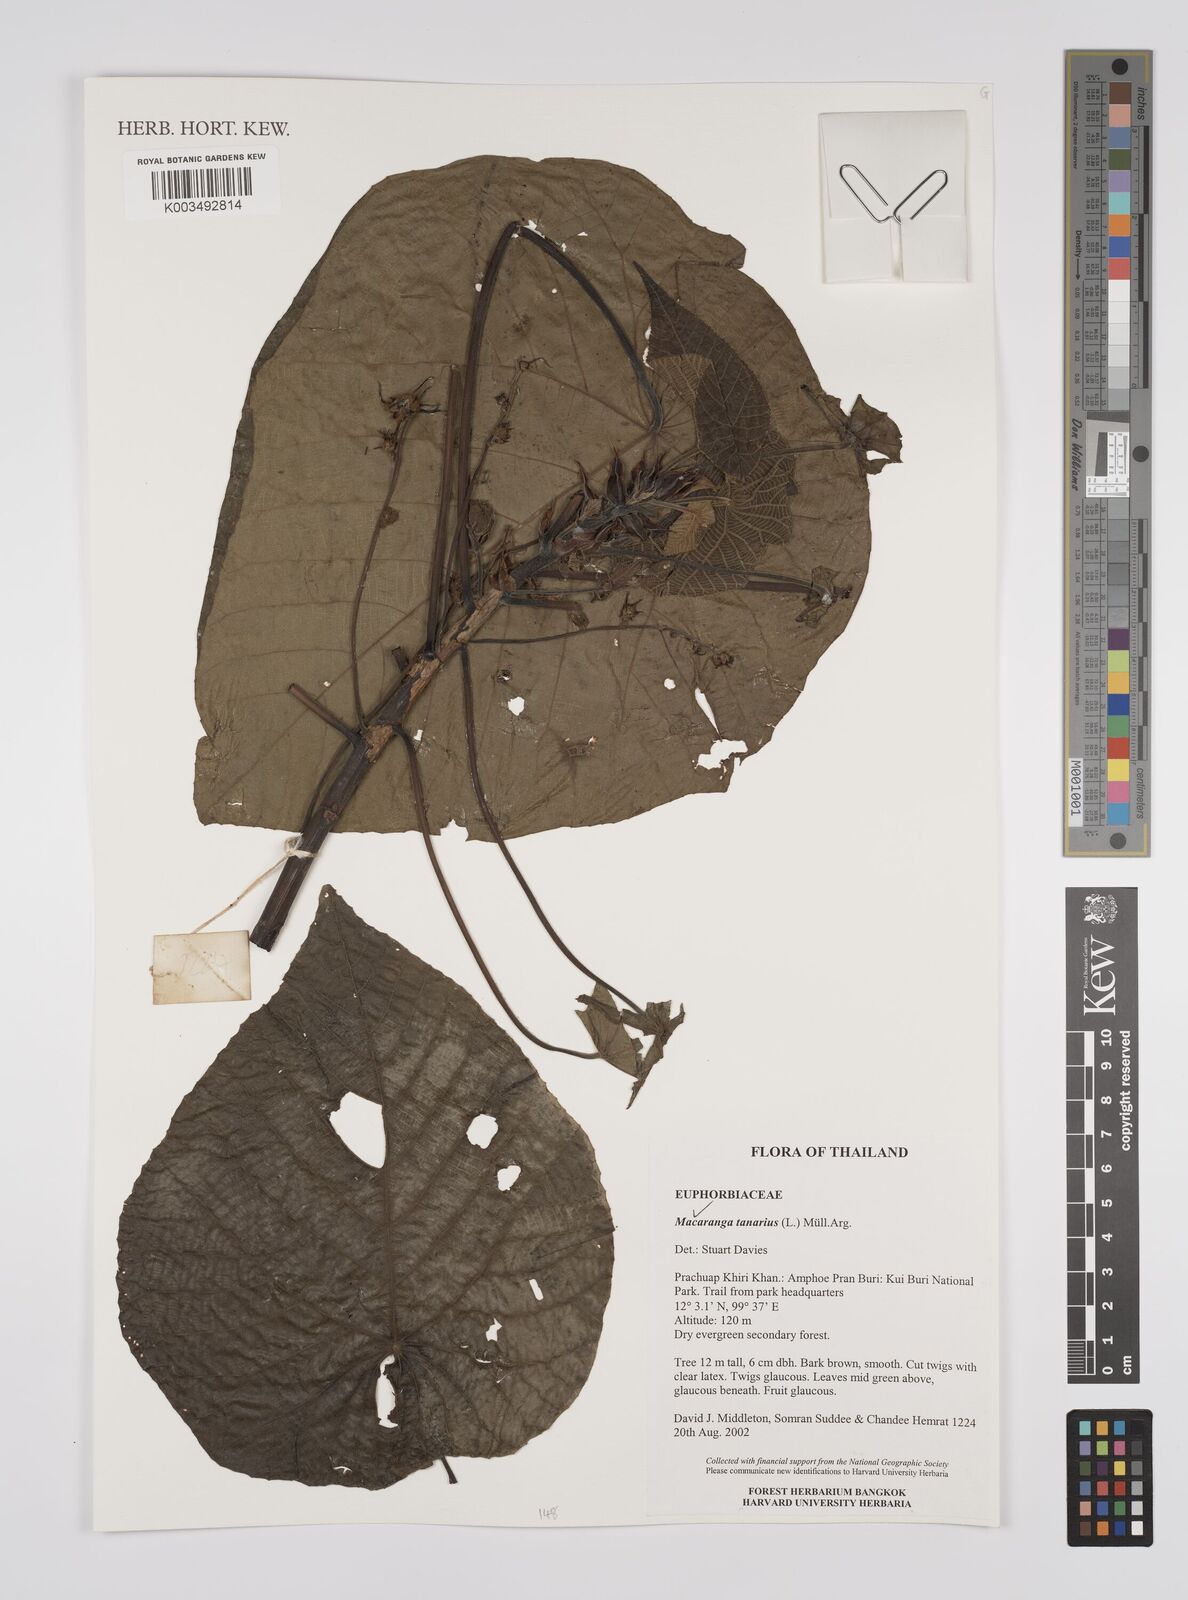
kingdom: Plantae
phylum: Tracheophyta
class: Magnoliopsida
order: Malpighiales
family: Euphorbiaceae
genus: Macaranga
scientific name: Macaranga tanarius
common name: Parasol leaf tree
